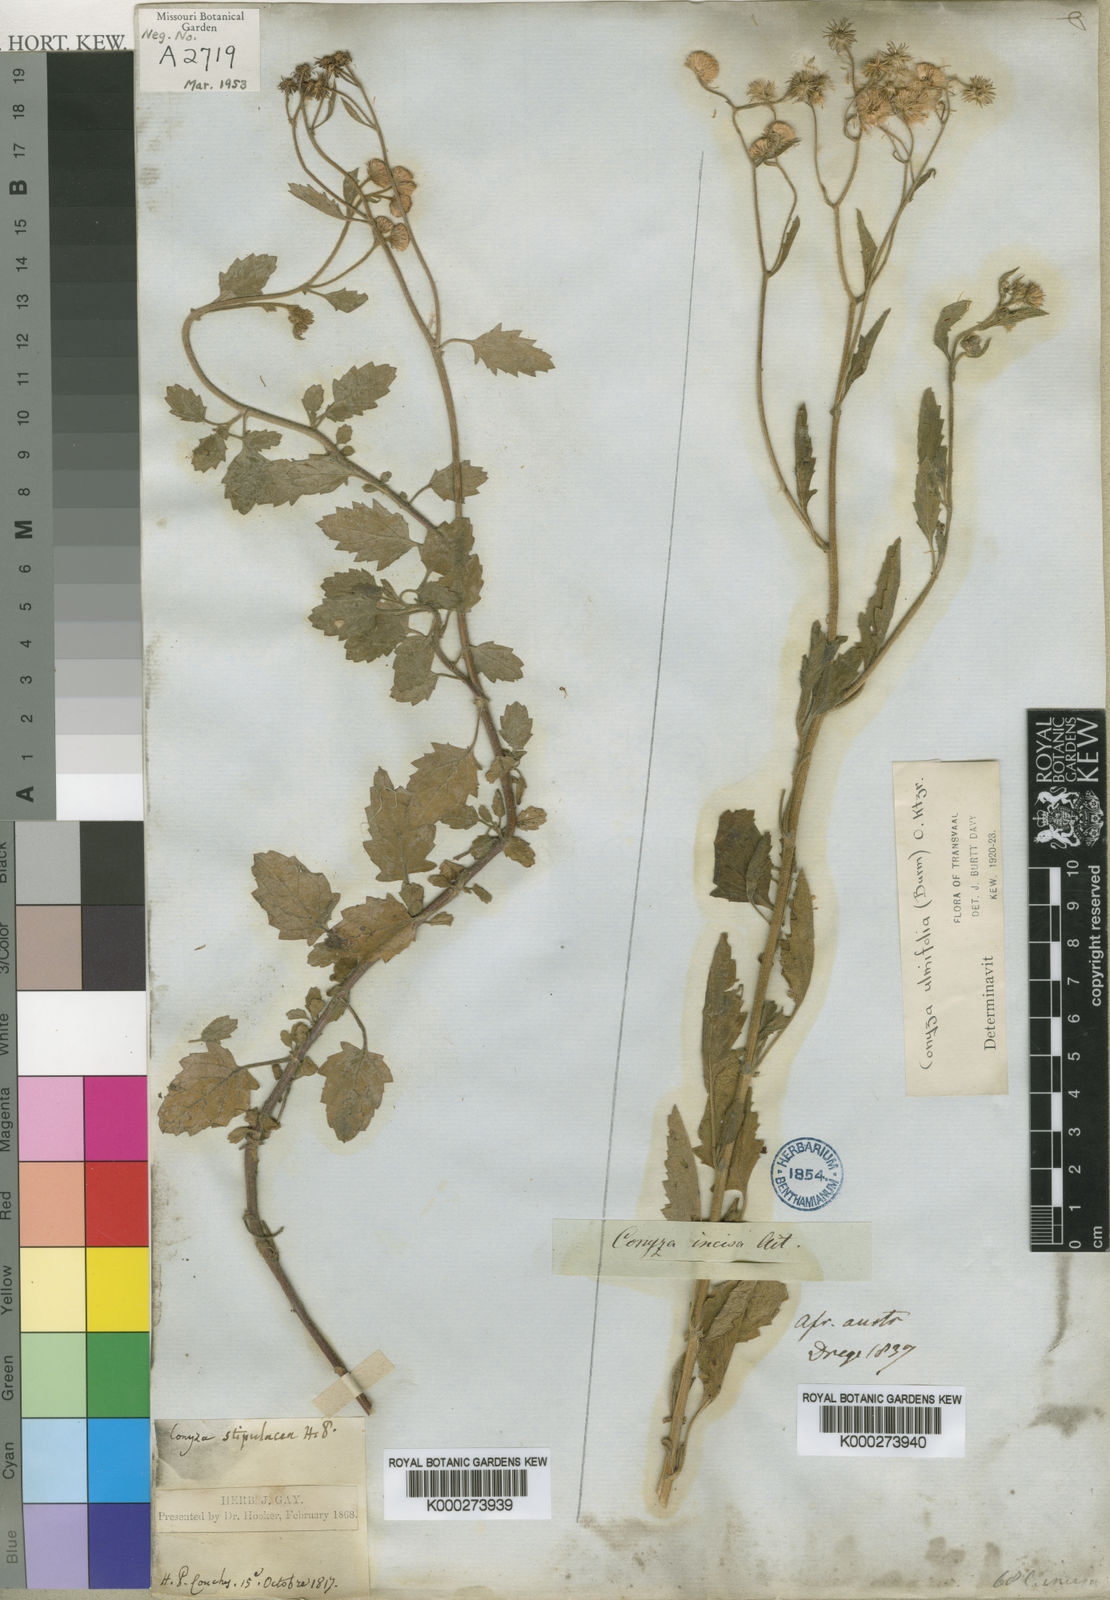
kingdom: Plantae
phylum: Tracheophyta
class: Magnoliopsida
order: Asterales
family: Asteraceae
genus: Eschenbachia
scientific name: Eschenbachia ulmifolia
